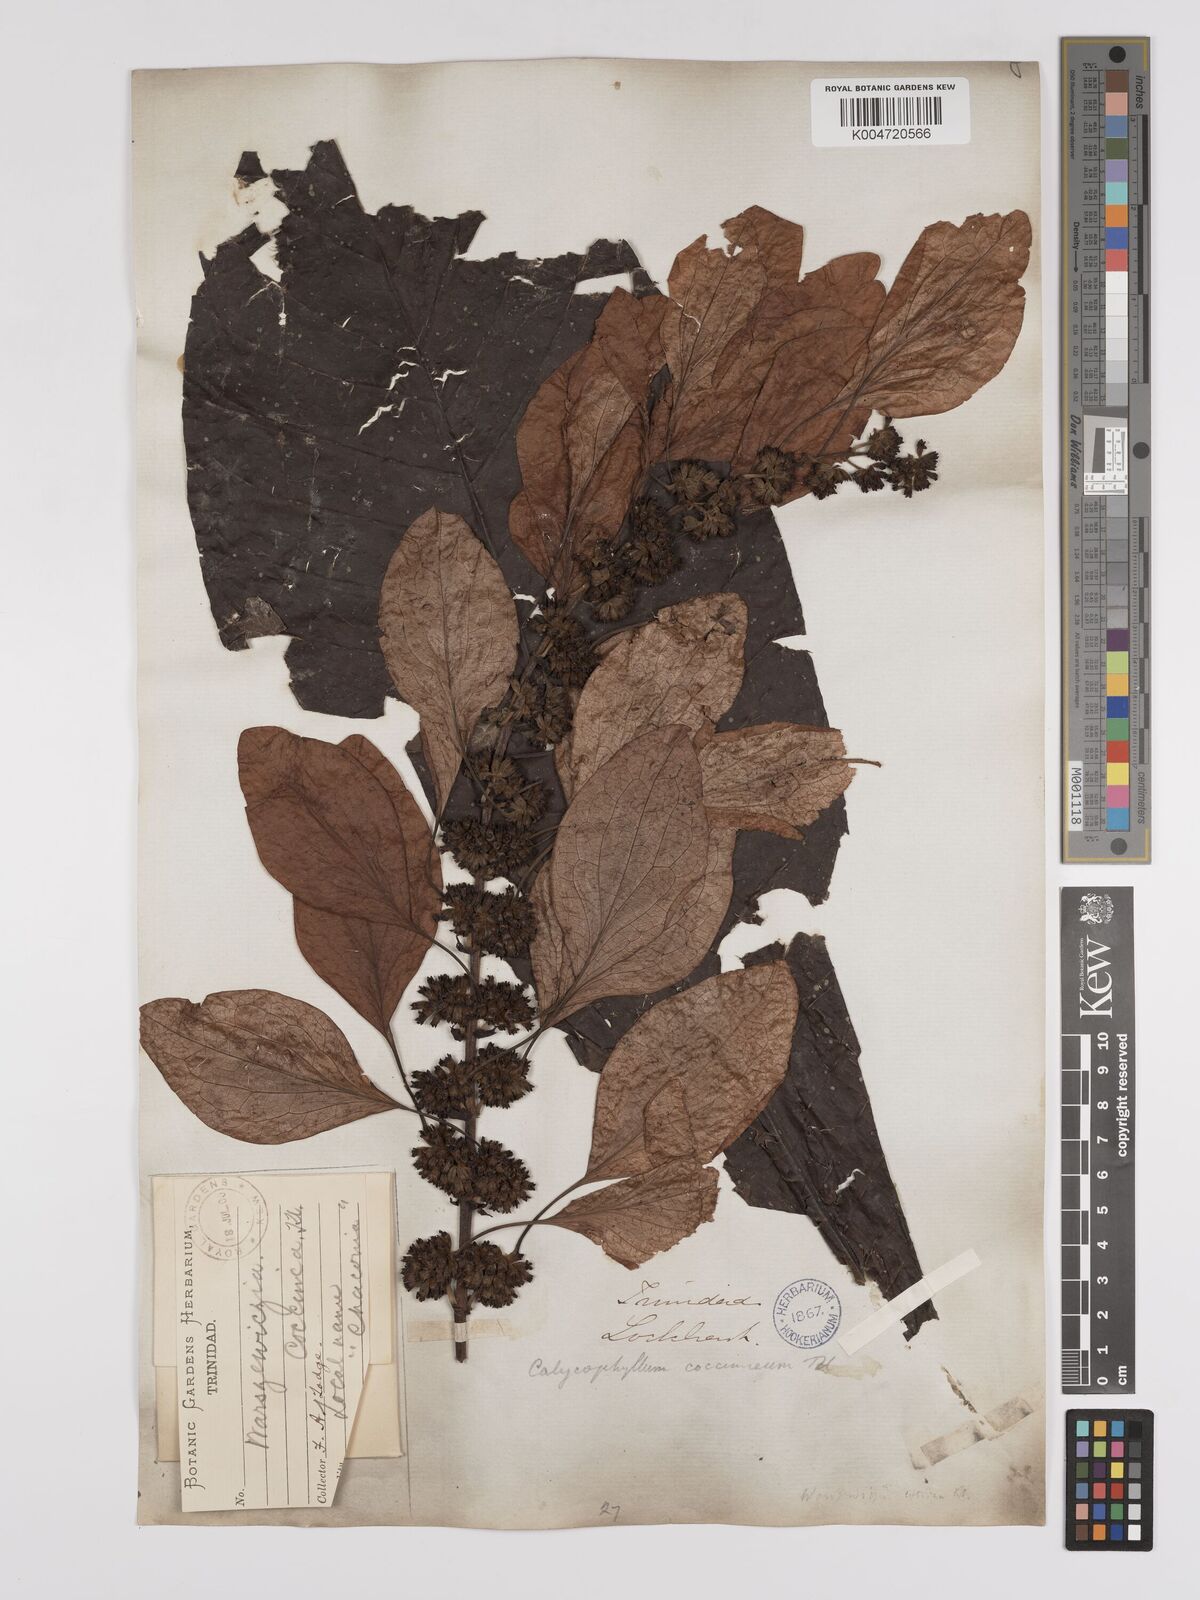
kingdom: Plantae
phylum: Tracheophyta
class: Magnoliopsida
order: Gentianales
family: Rubiaceae
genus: Warszewiczia
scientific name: Warszewiczia coccinea
